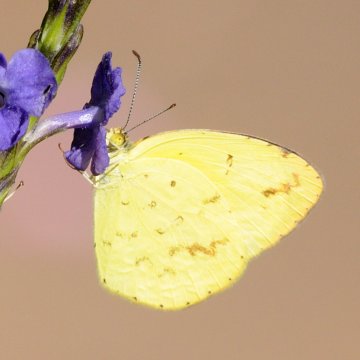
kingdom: Animalia
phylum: Arthropoda
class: Insecta
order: Lepidoptera
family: Pieridae
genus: Eurema
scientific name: Eurema desjardinsii
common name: Angled Grass Yellow
